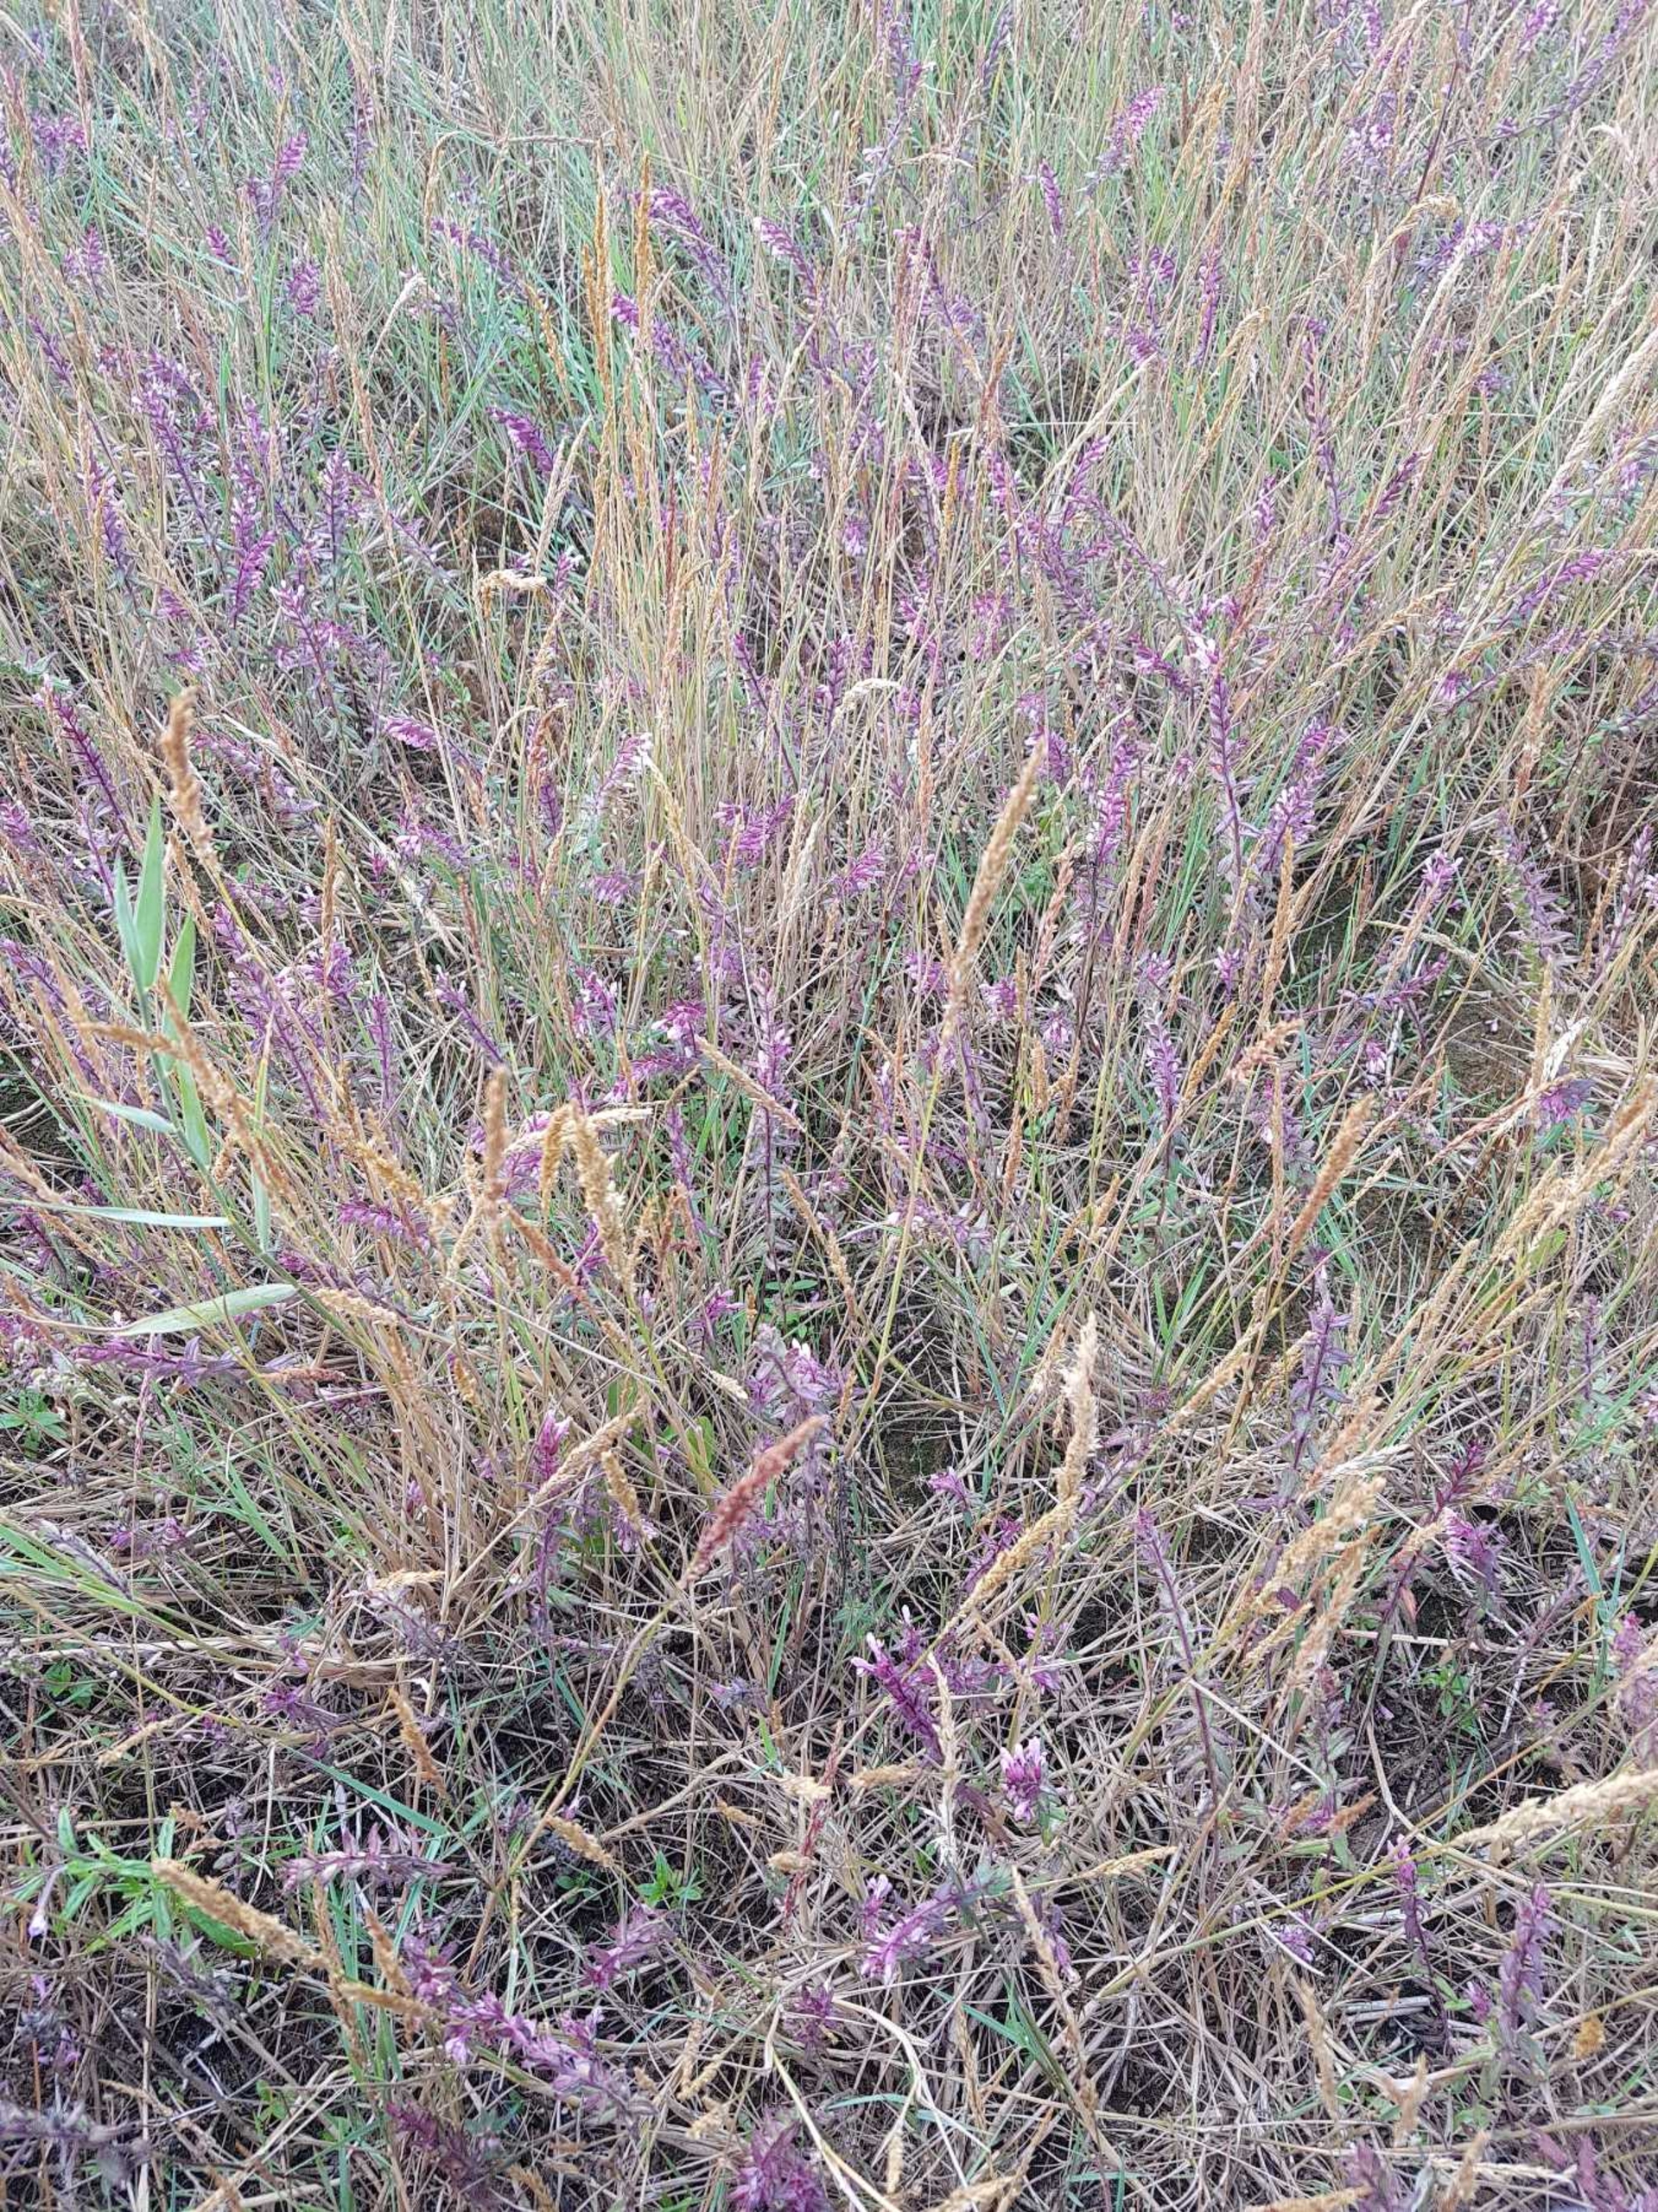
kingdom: Plantae
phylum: Tracheophyta
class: Magnoliopsida
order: Lamiales
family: Orobanchaceae
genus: Odontites
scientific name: Odontites vulgaris
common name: Høst-rødtop
